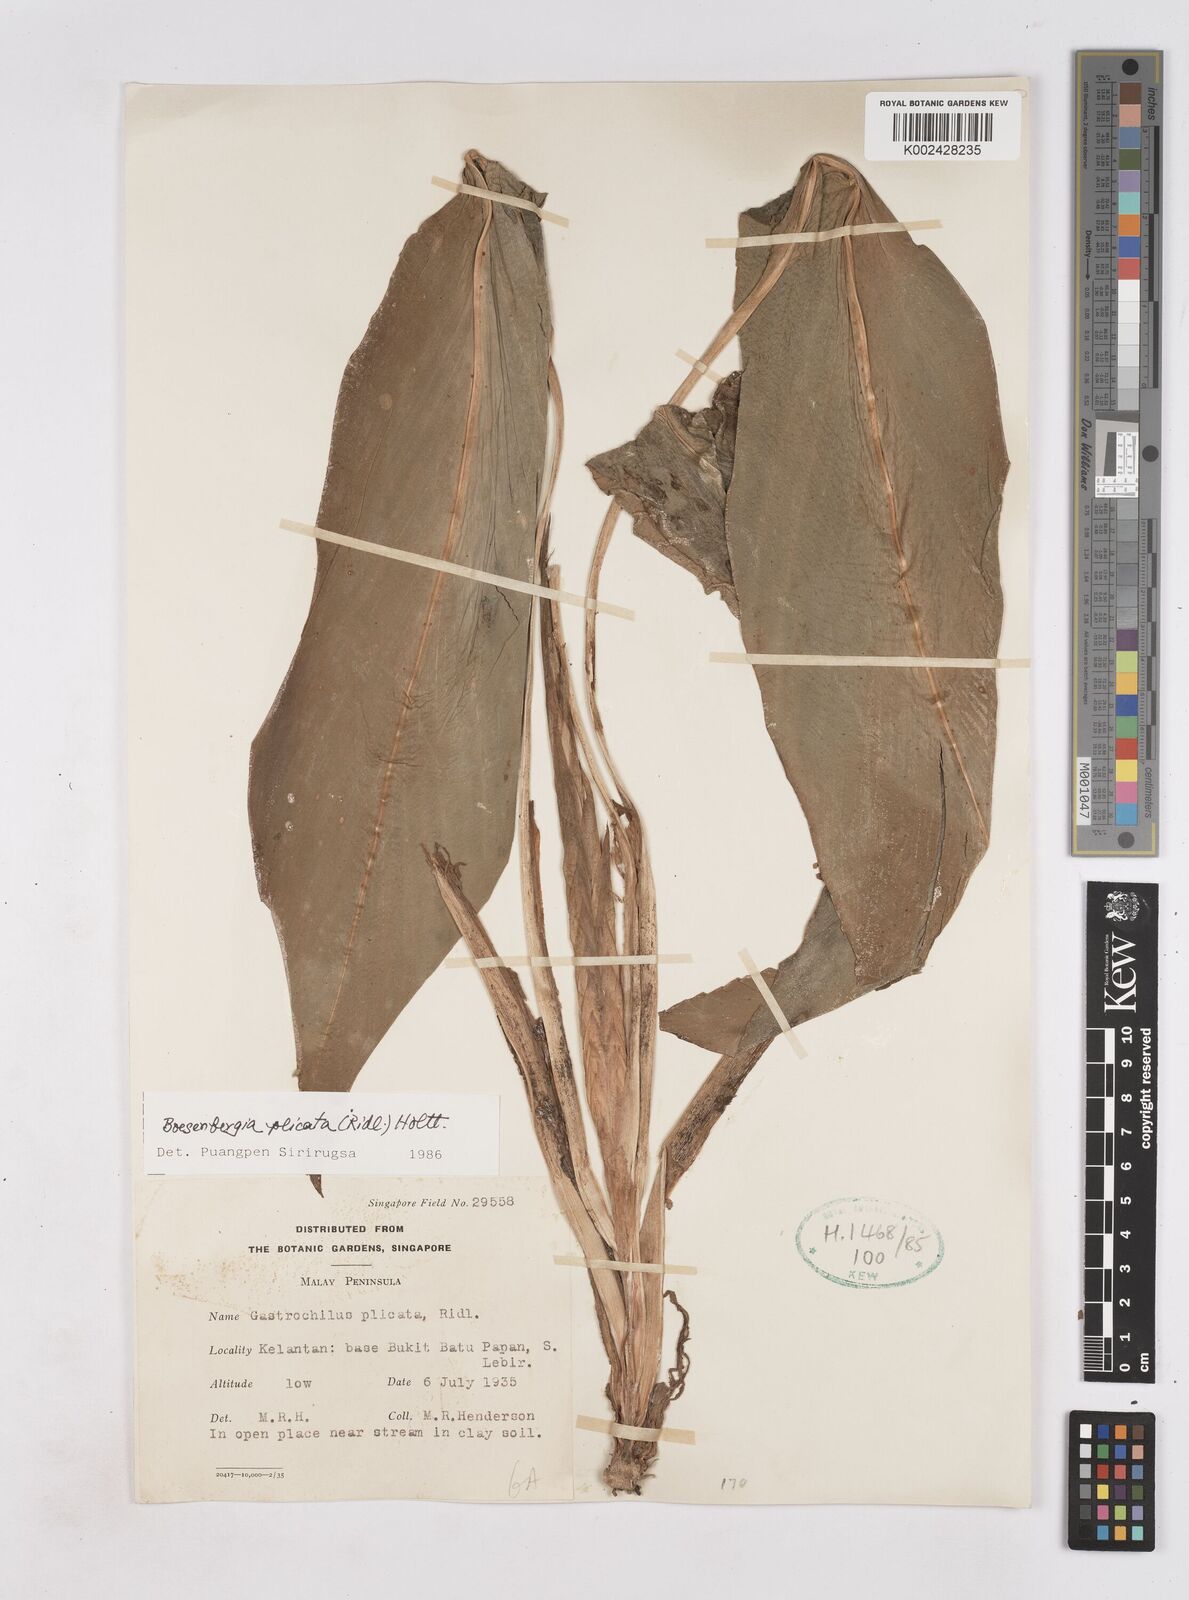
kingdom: Plantae
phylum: Tracheophyta
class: Liliopsida
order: Zingiberales
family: Zingiberaceae
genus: Boesenbergia
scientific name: Boesenbergia plicata
